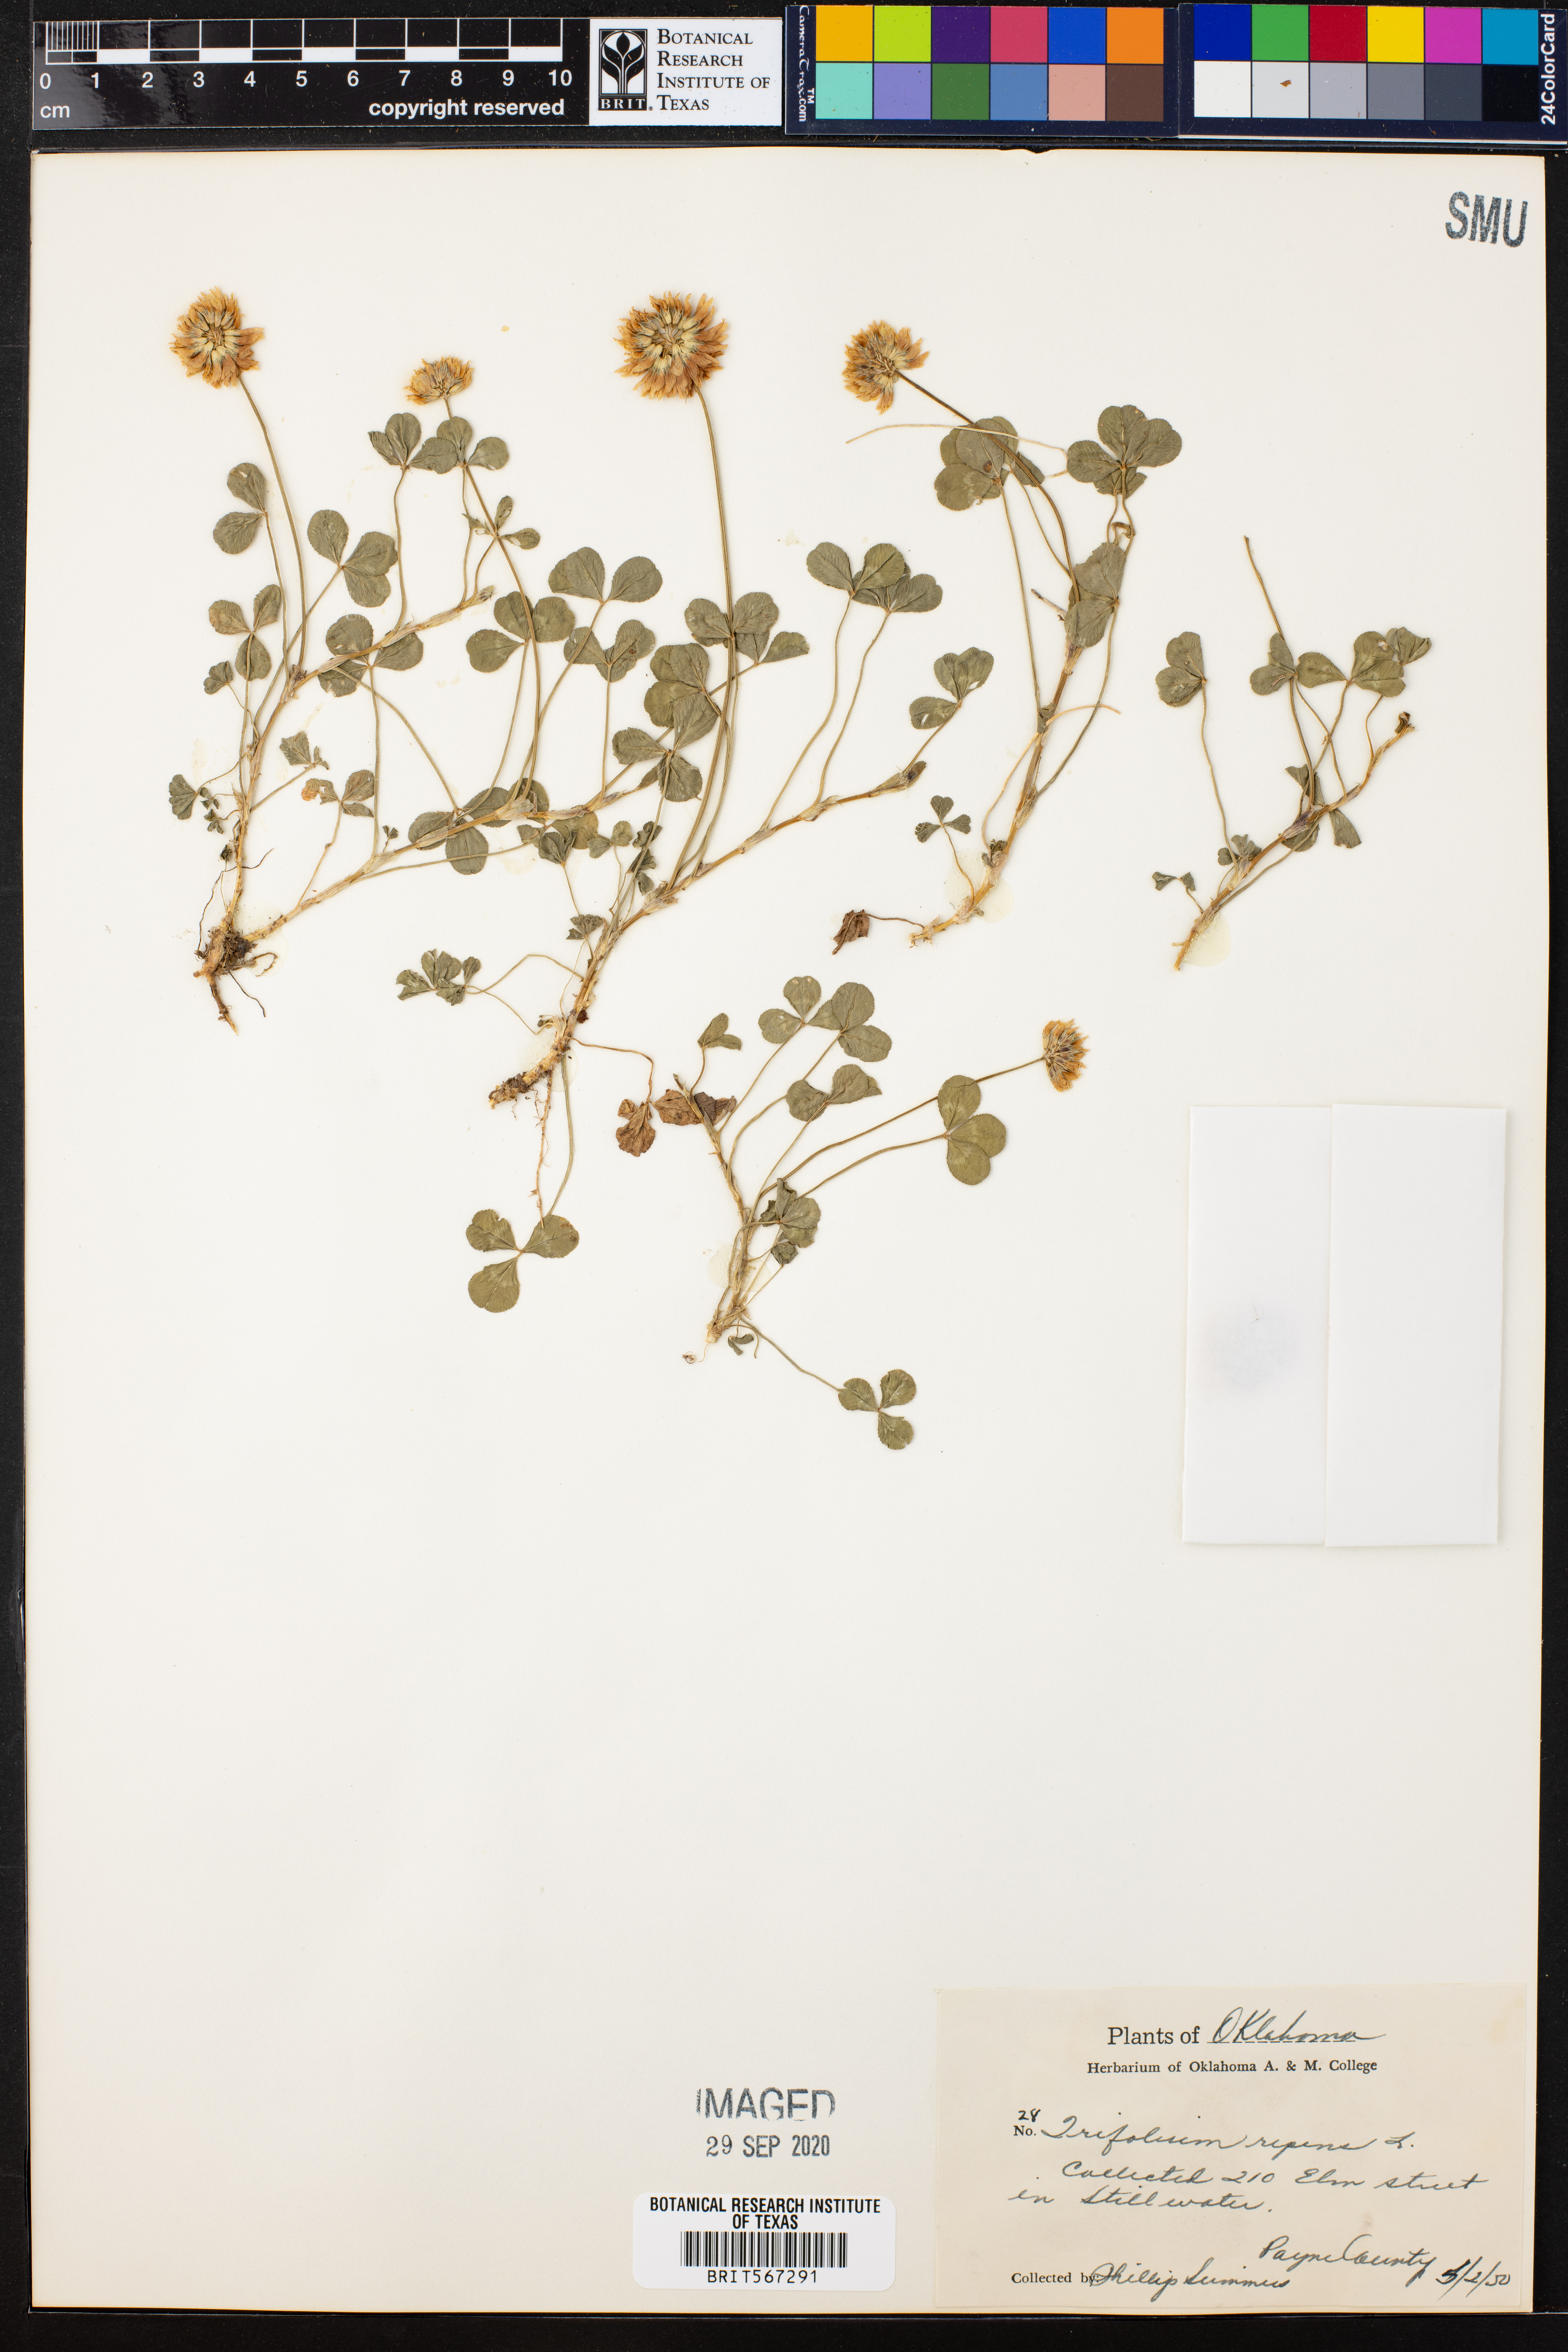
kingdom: Plantae
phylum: Tracheophyta
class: Magnoliopsida
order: Fabales
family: Fabaceae
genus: Trifolium
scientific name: Trifolium repens
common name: White clover
